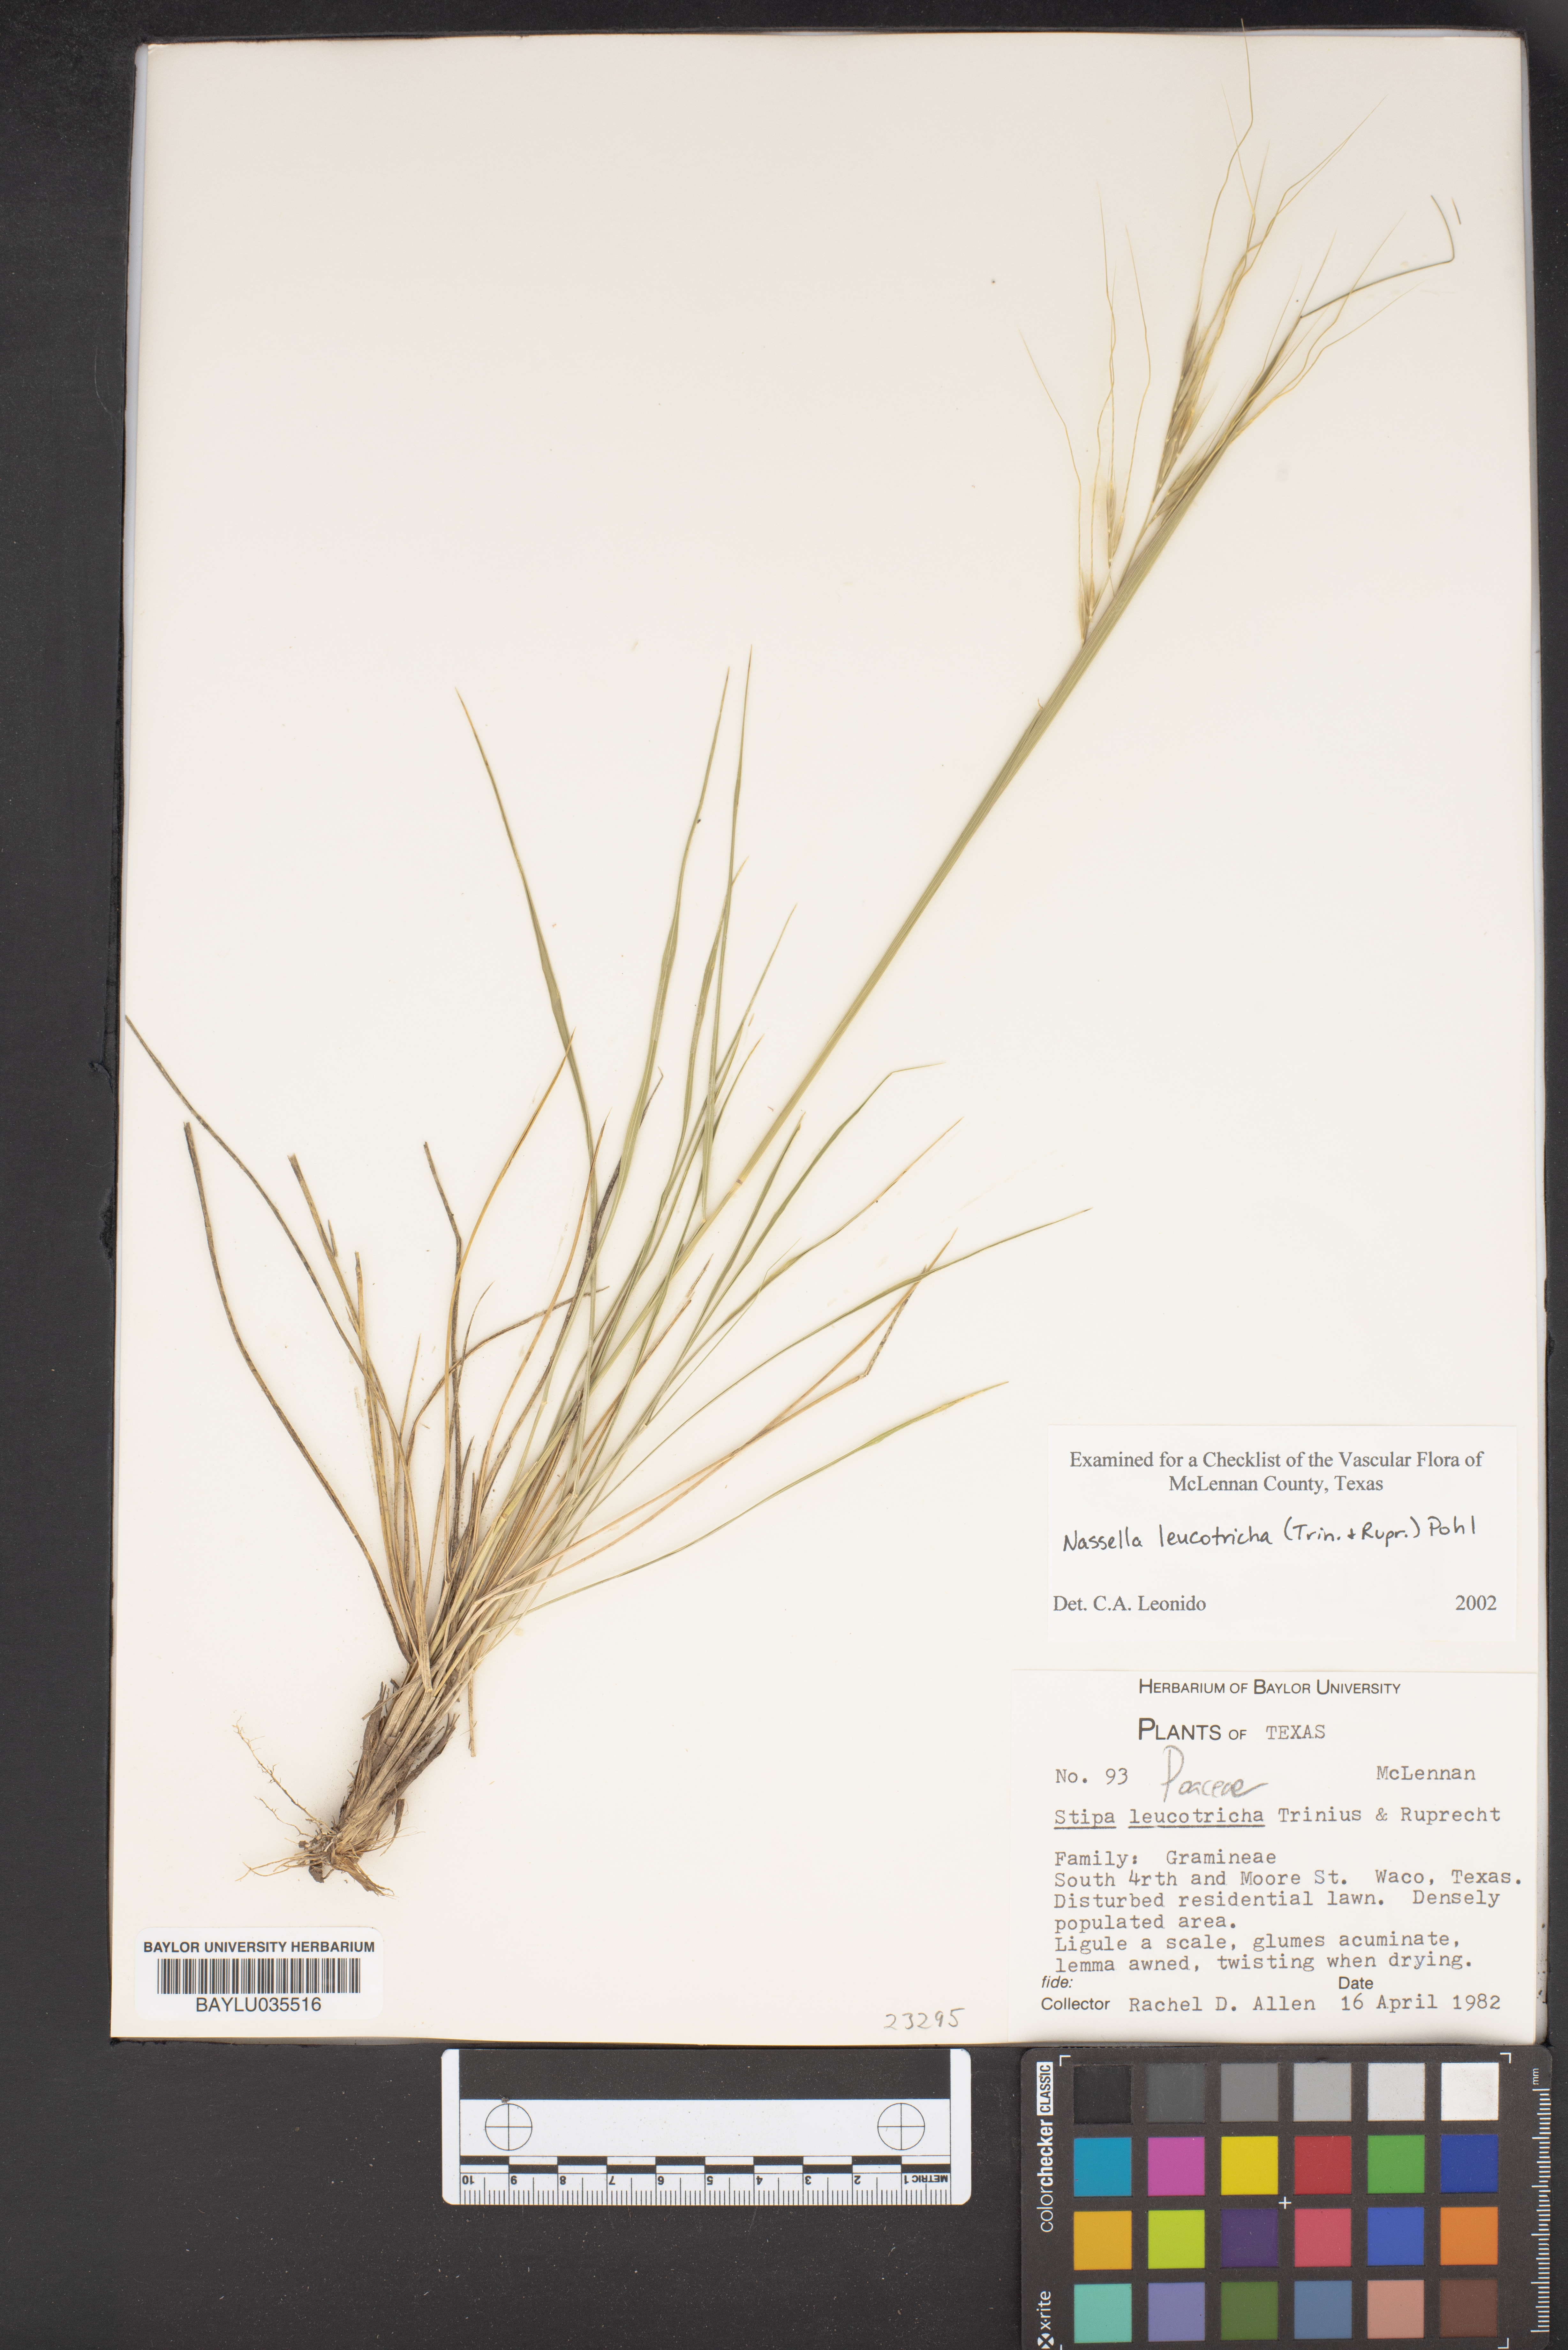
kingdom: Plantae
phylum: Tracheophyta
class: Liliopsida
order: Poales
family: Poaceae
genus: Nassella
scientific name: Nassella leucotricha
